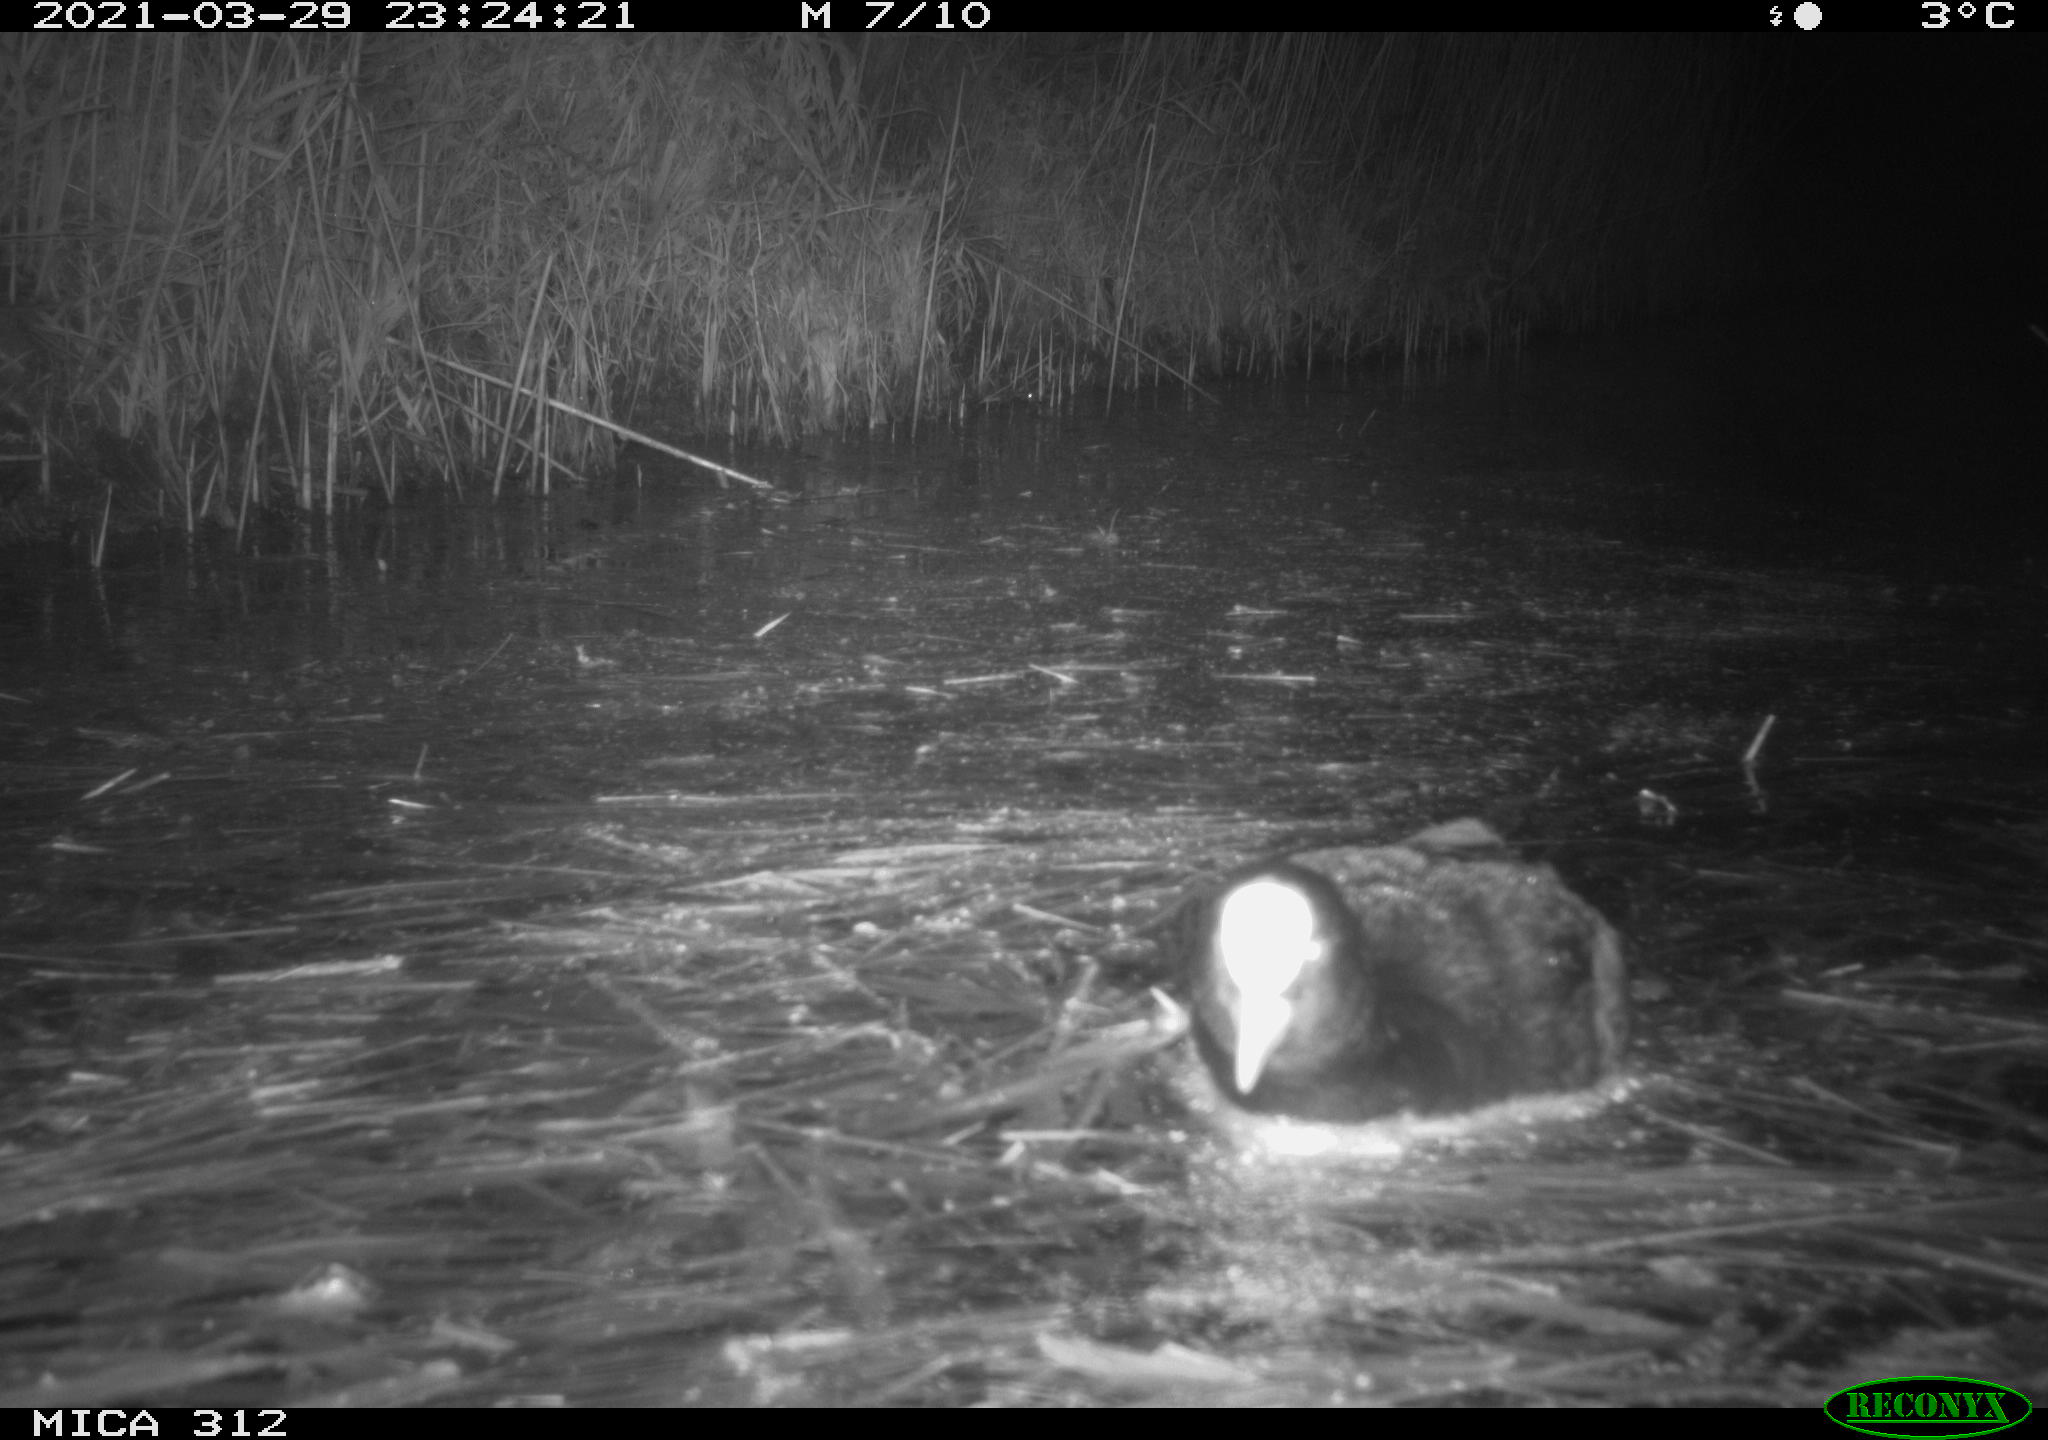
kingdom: Animalia
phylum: Chordata
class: Aves
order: Gruiformes
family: Rallidae
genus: Fulica
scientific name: Fulica atra
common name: Eurasian coot
